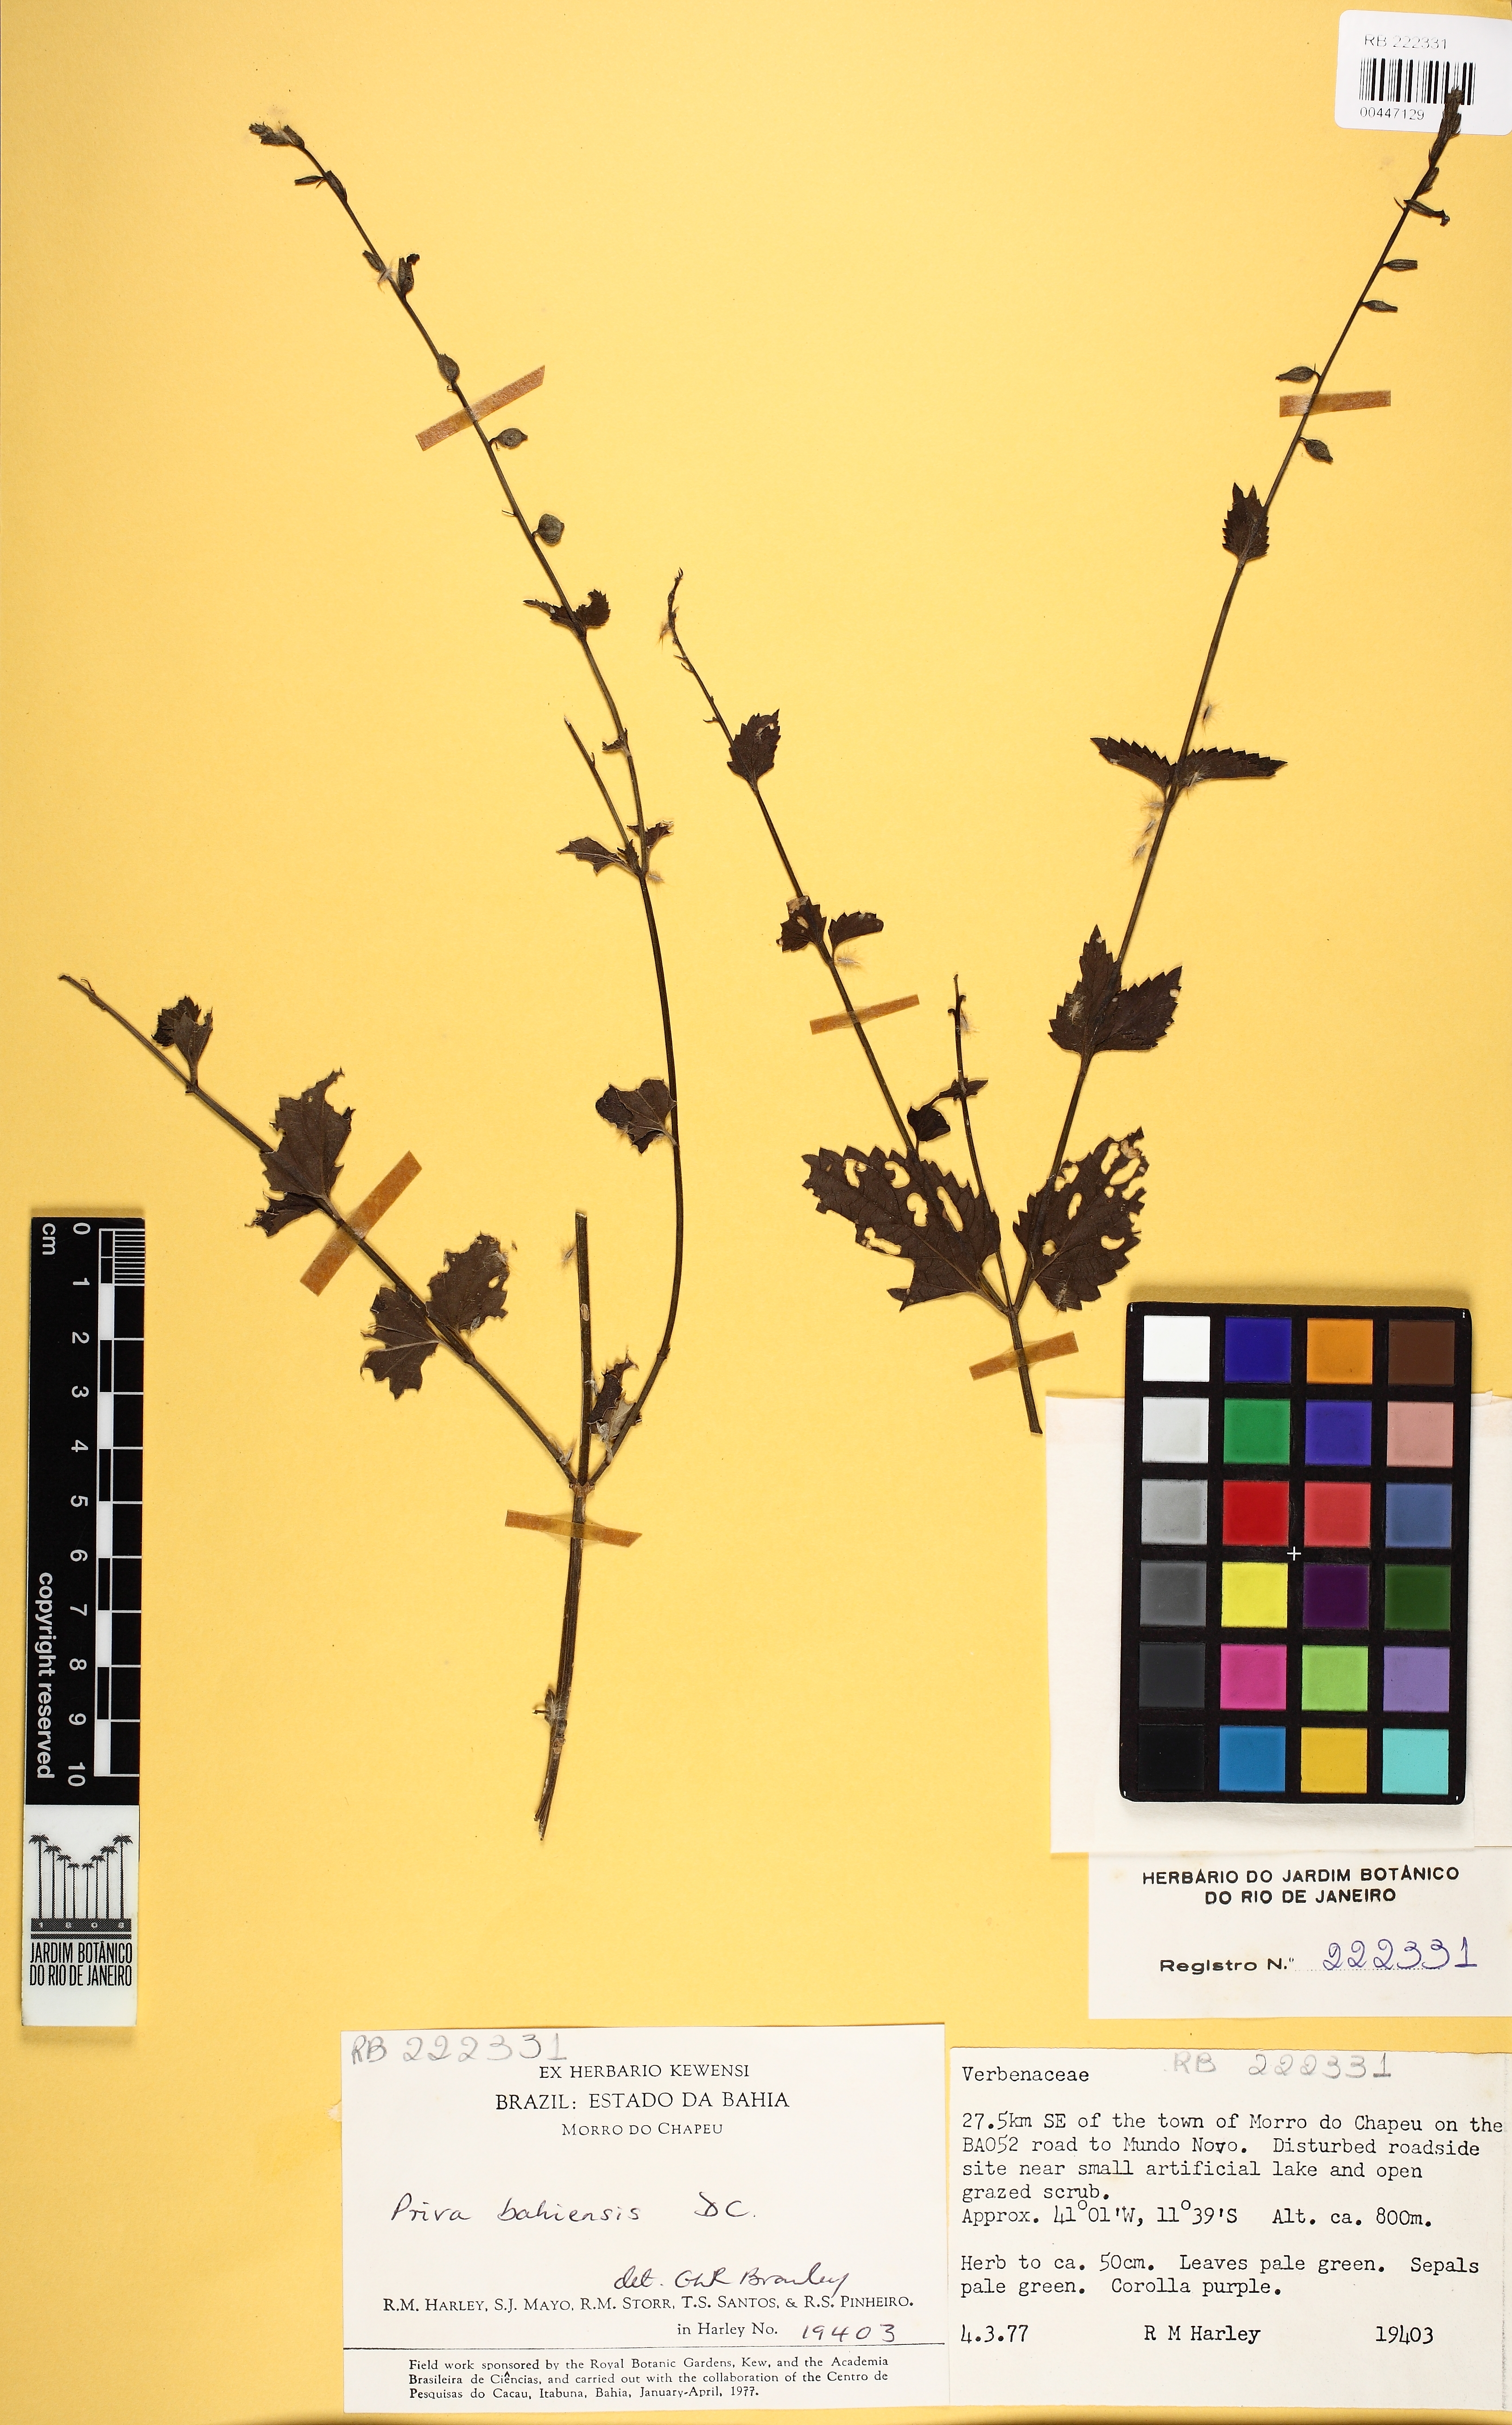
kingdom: Plantae
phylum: Tracheophyta
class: Magnoliopsida
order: Lamiales
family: Verbenaceae
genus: Priva
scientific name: Priva bahiensis
